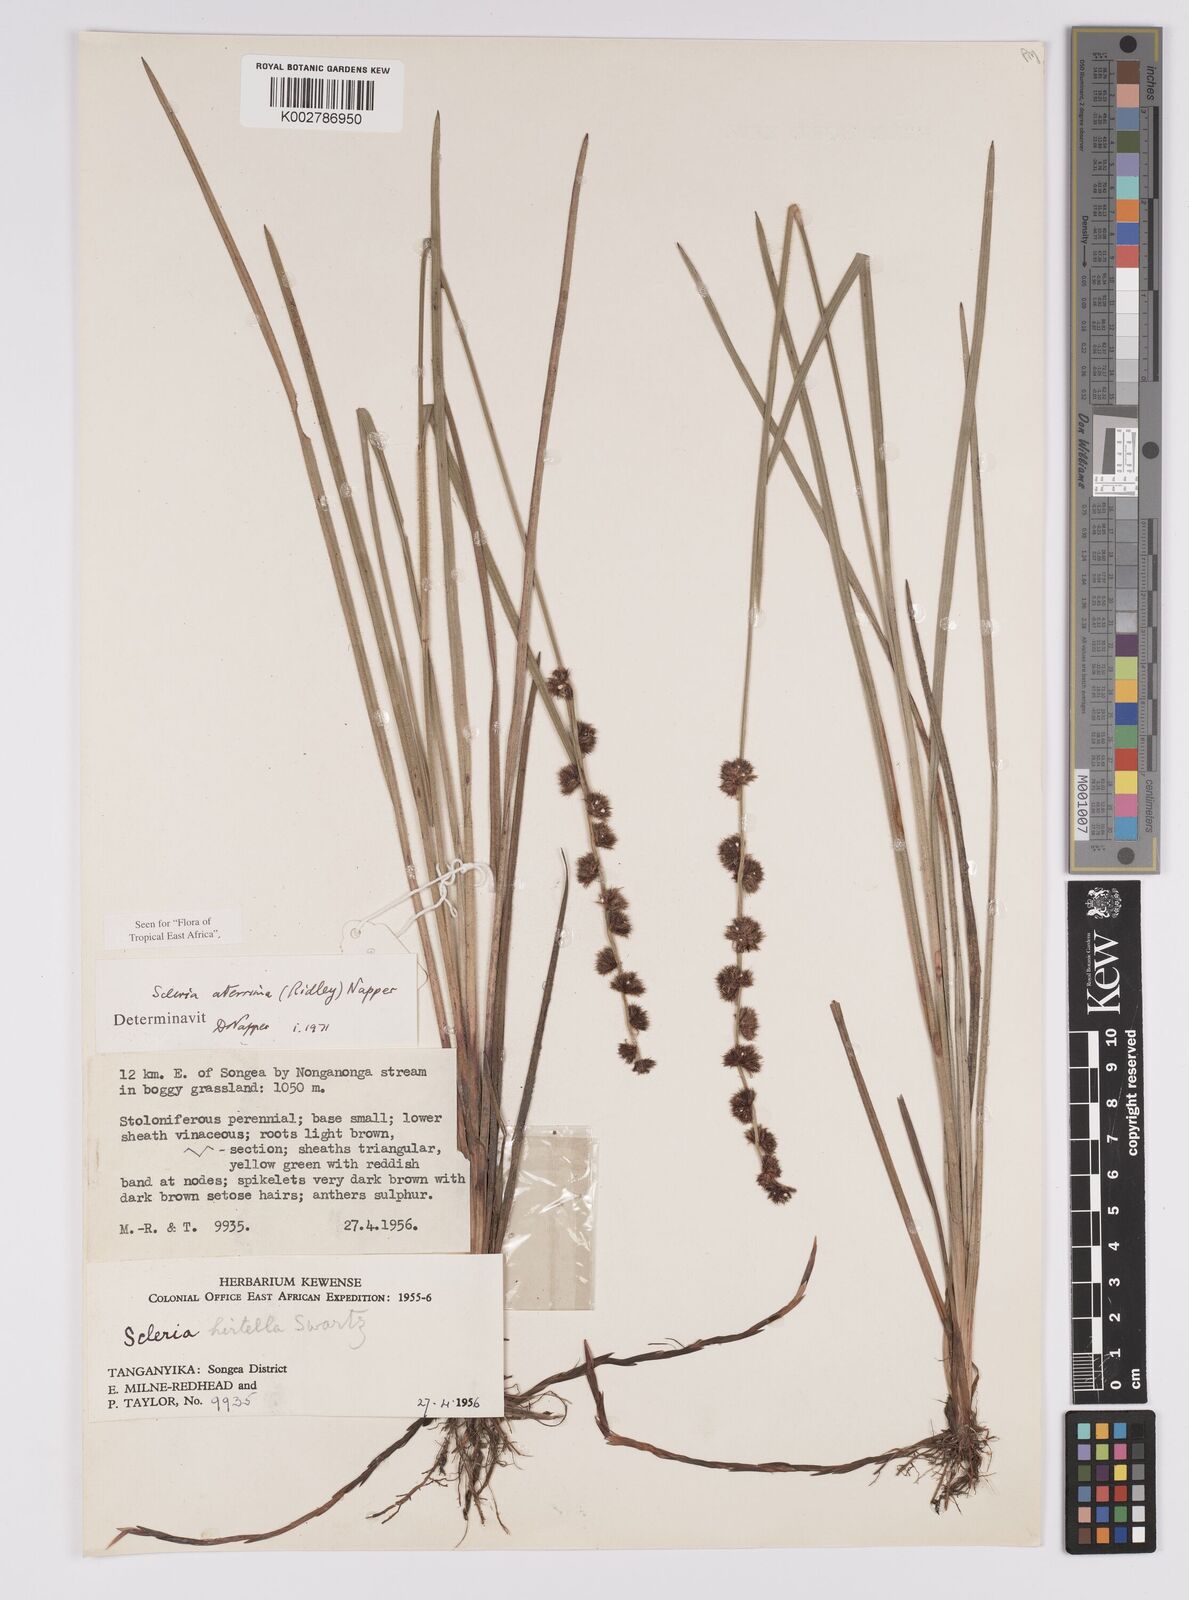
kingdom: Plantae
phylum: Tracheophyta
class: Liliopsida
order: Poales
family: Cyperaceae
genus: Scleria
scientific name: Scleria catophylla
